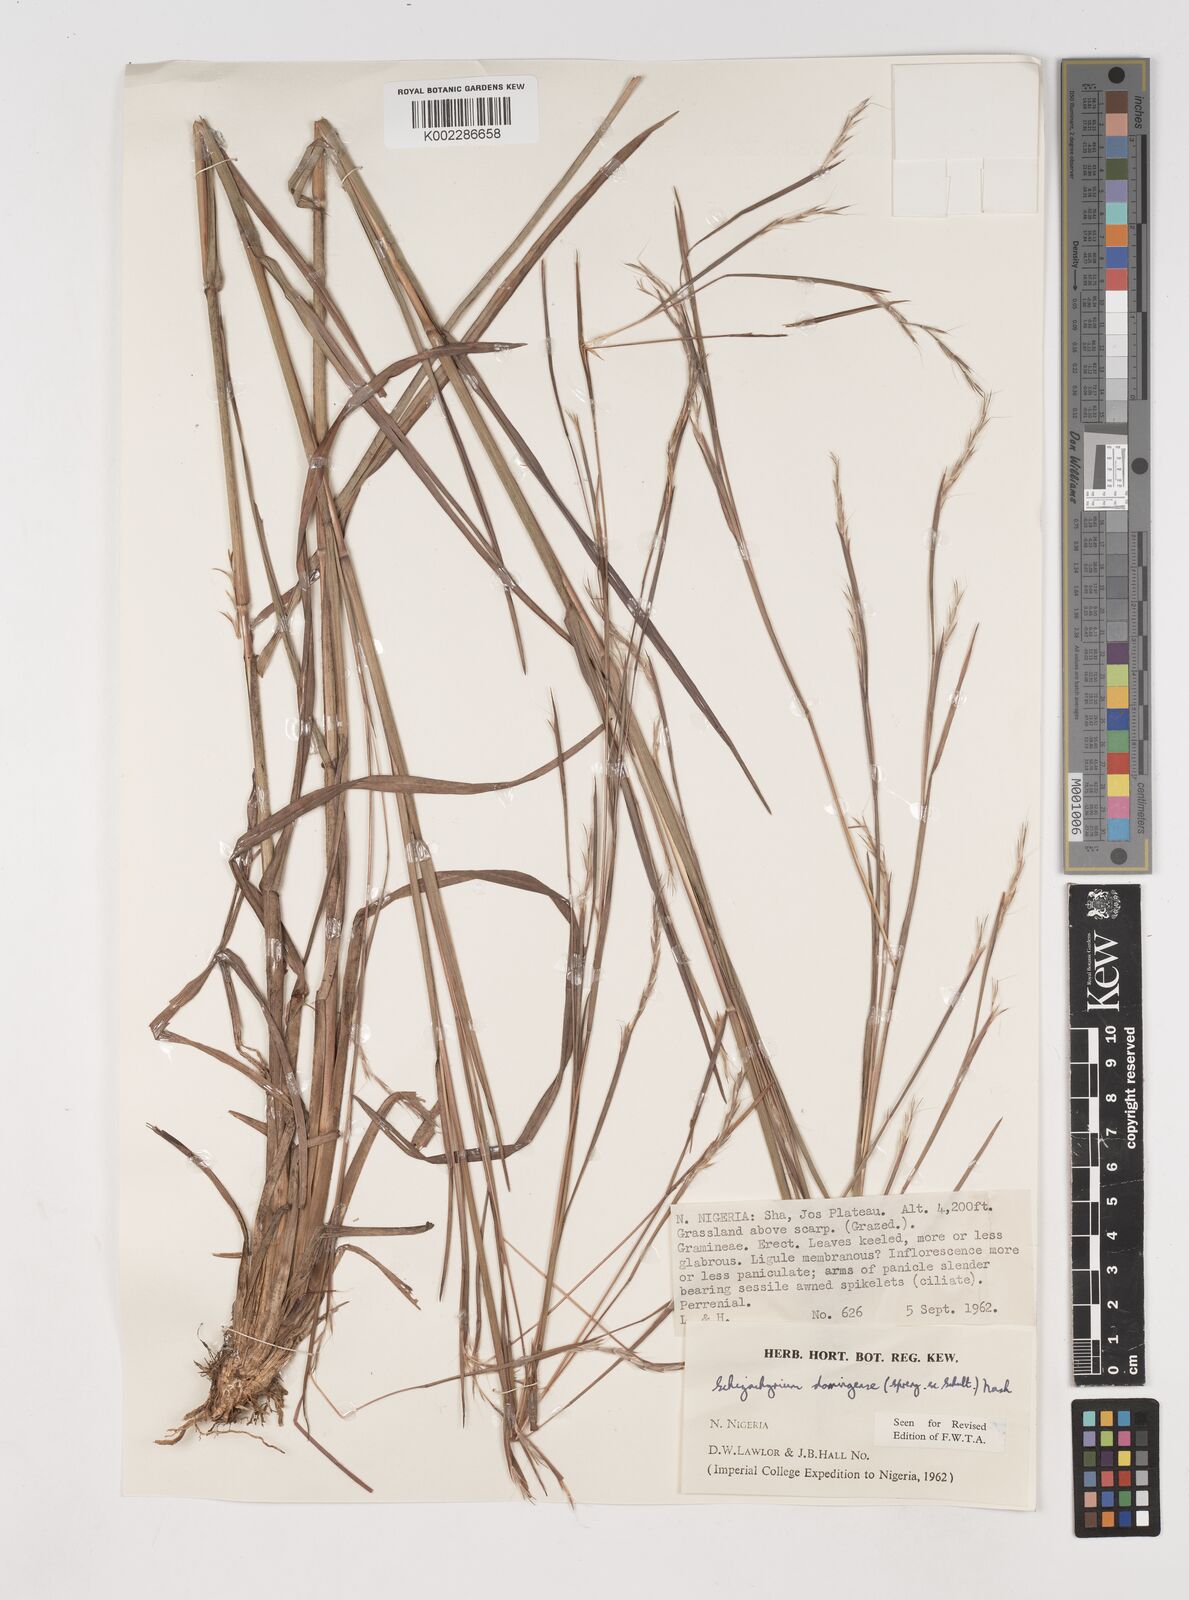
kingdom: Plantae
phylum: Tracheophyta
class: Liliopsida
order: Poales
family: Poaceae
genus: Schizachyrium
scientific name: Schizachyrium sanguineum
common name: Crimson bluestem
